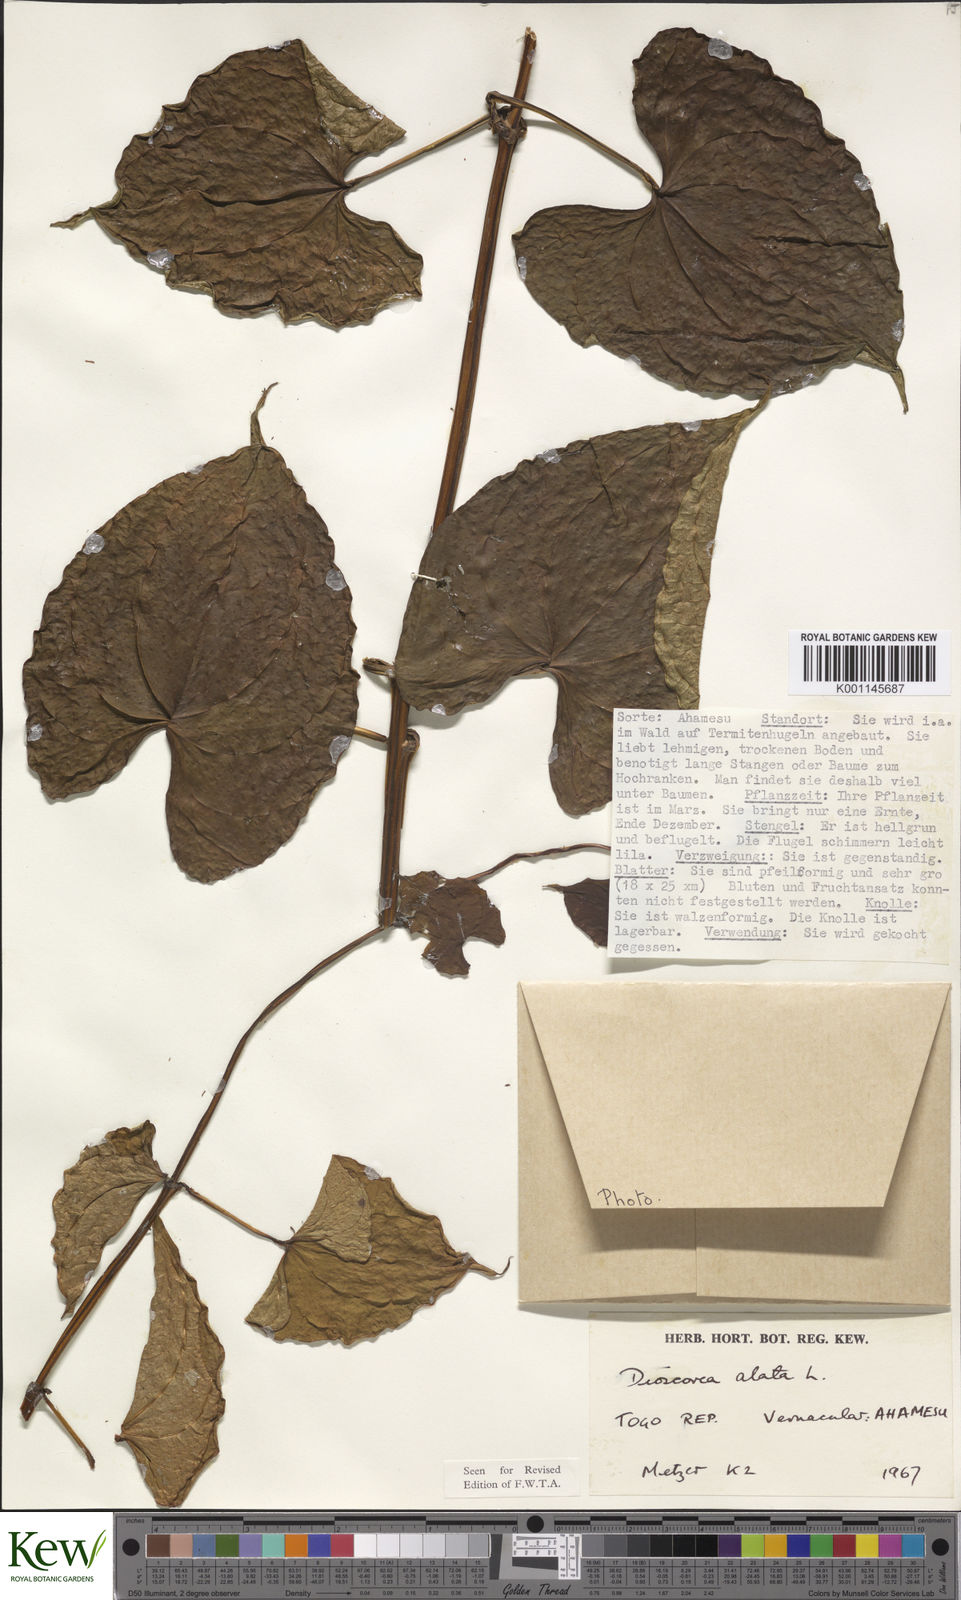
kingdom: Plantae
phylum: Tracheophyta
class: Liliopsida
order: Dioscoreales
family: Dioscoreaceae
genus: Dioscorea
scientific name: Dioscorea alata
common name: Water yam
